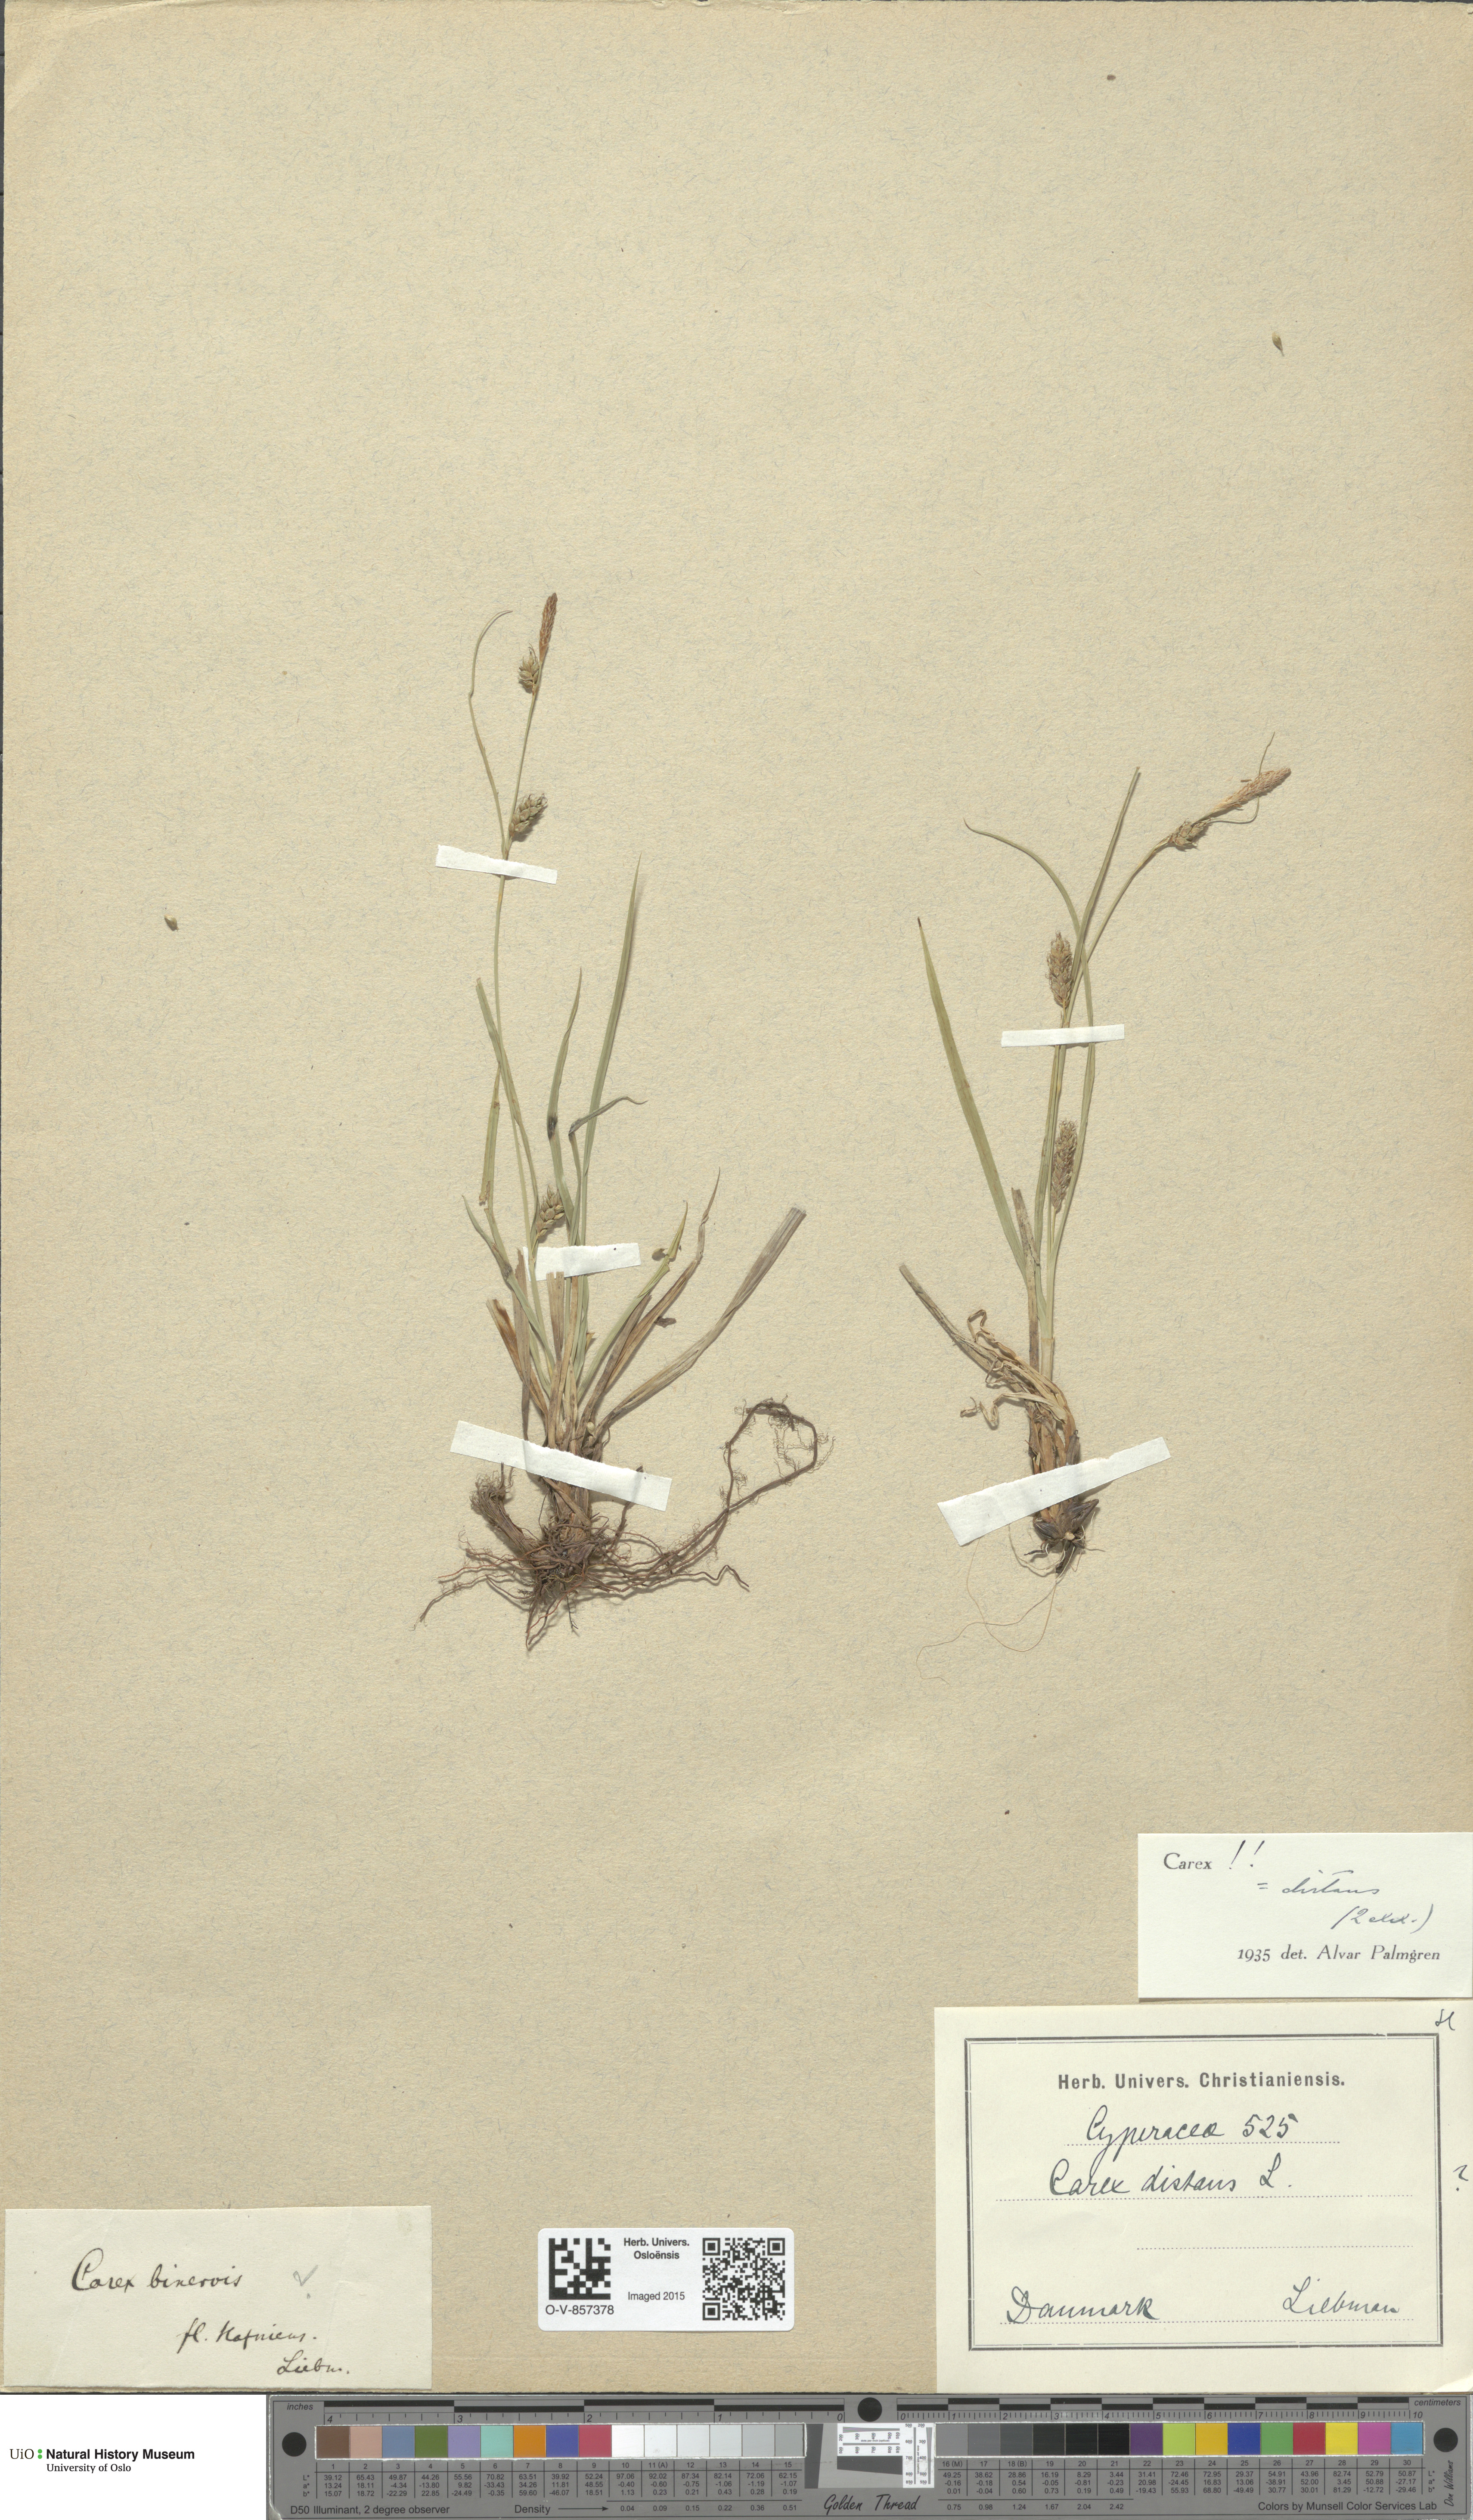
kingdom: Plantae
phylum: Tracheophyta
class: Liliopsida
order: Poales
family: Cyperaceae
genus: Carex
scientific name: Carex distans
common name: Distant sedge
